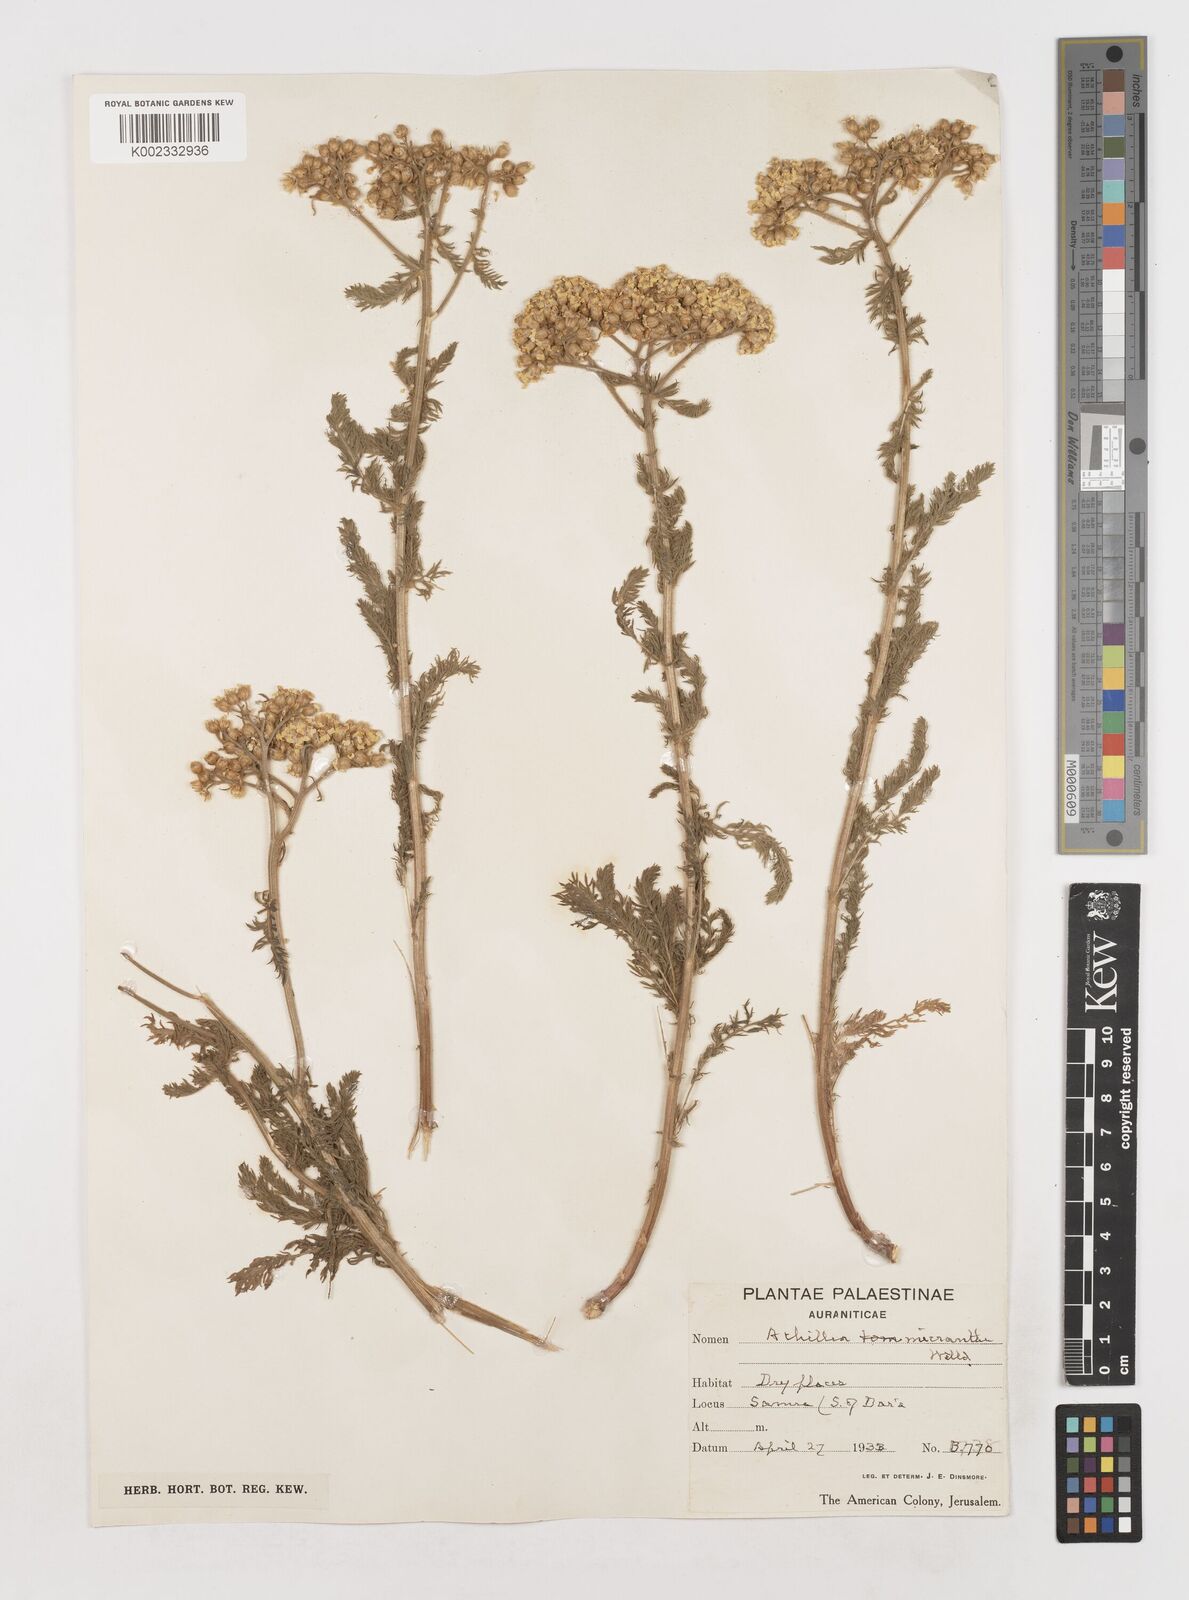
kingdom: Plantae
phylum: Tracheophyta
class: Magnoliopsida
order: Asterales
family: Asteraceae
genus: Achillea
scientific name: Achillea arabica
